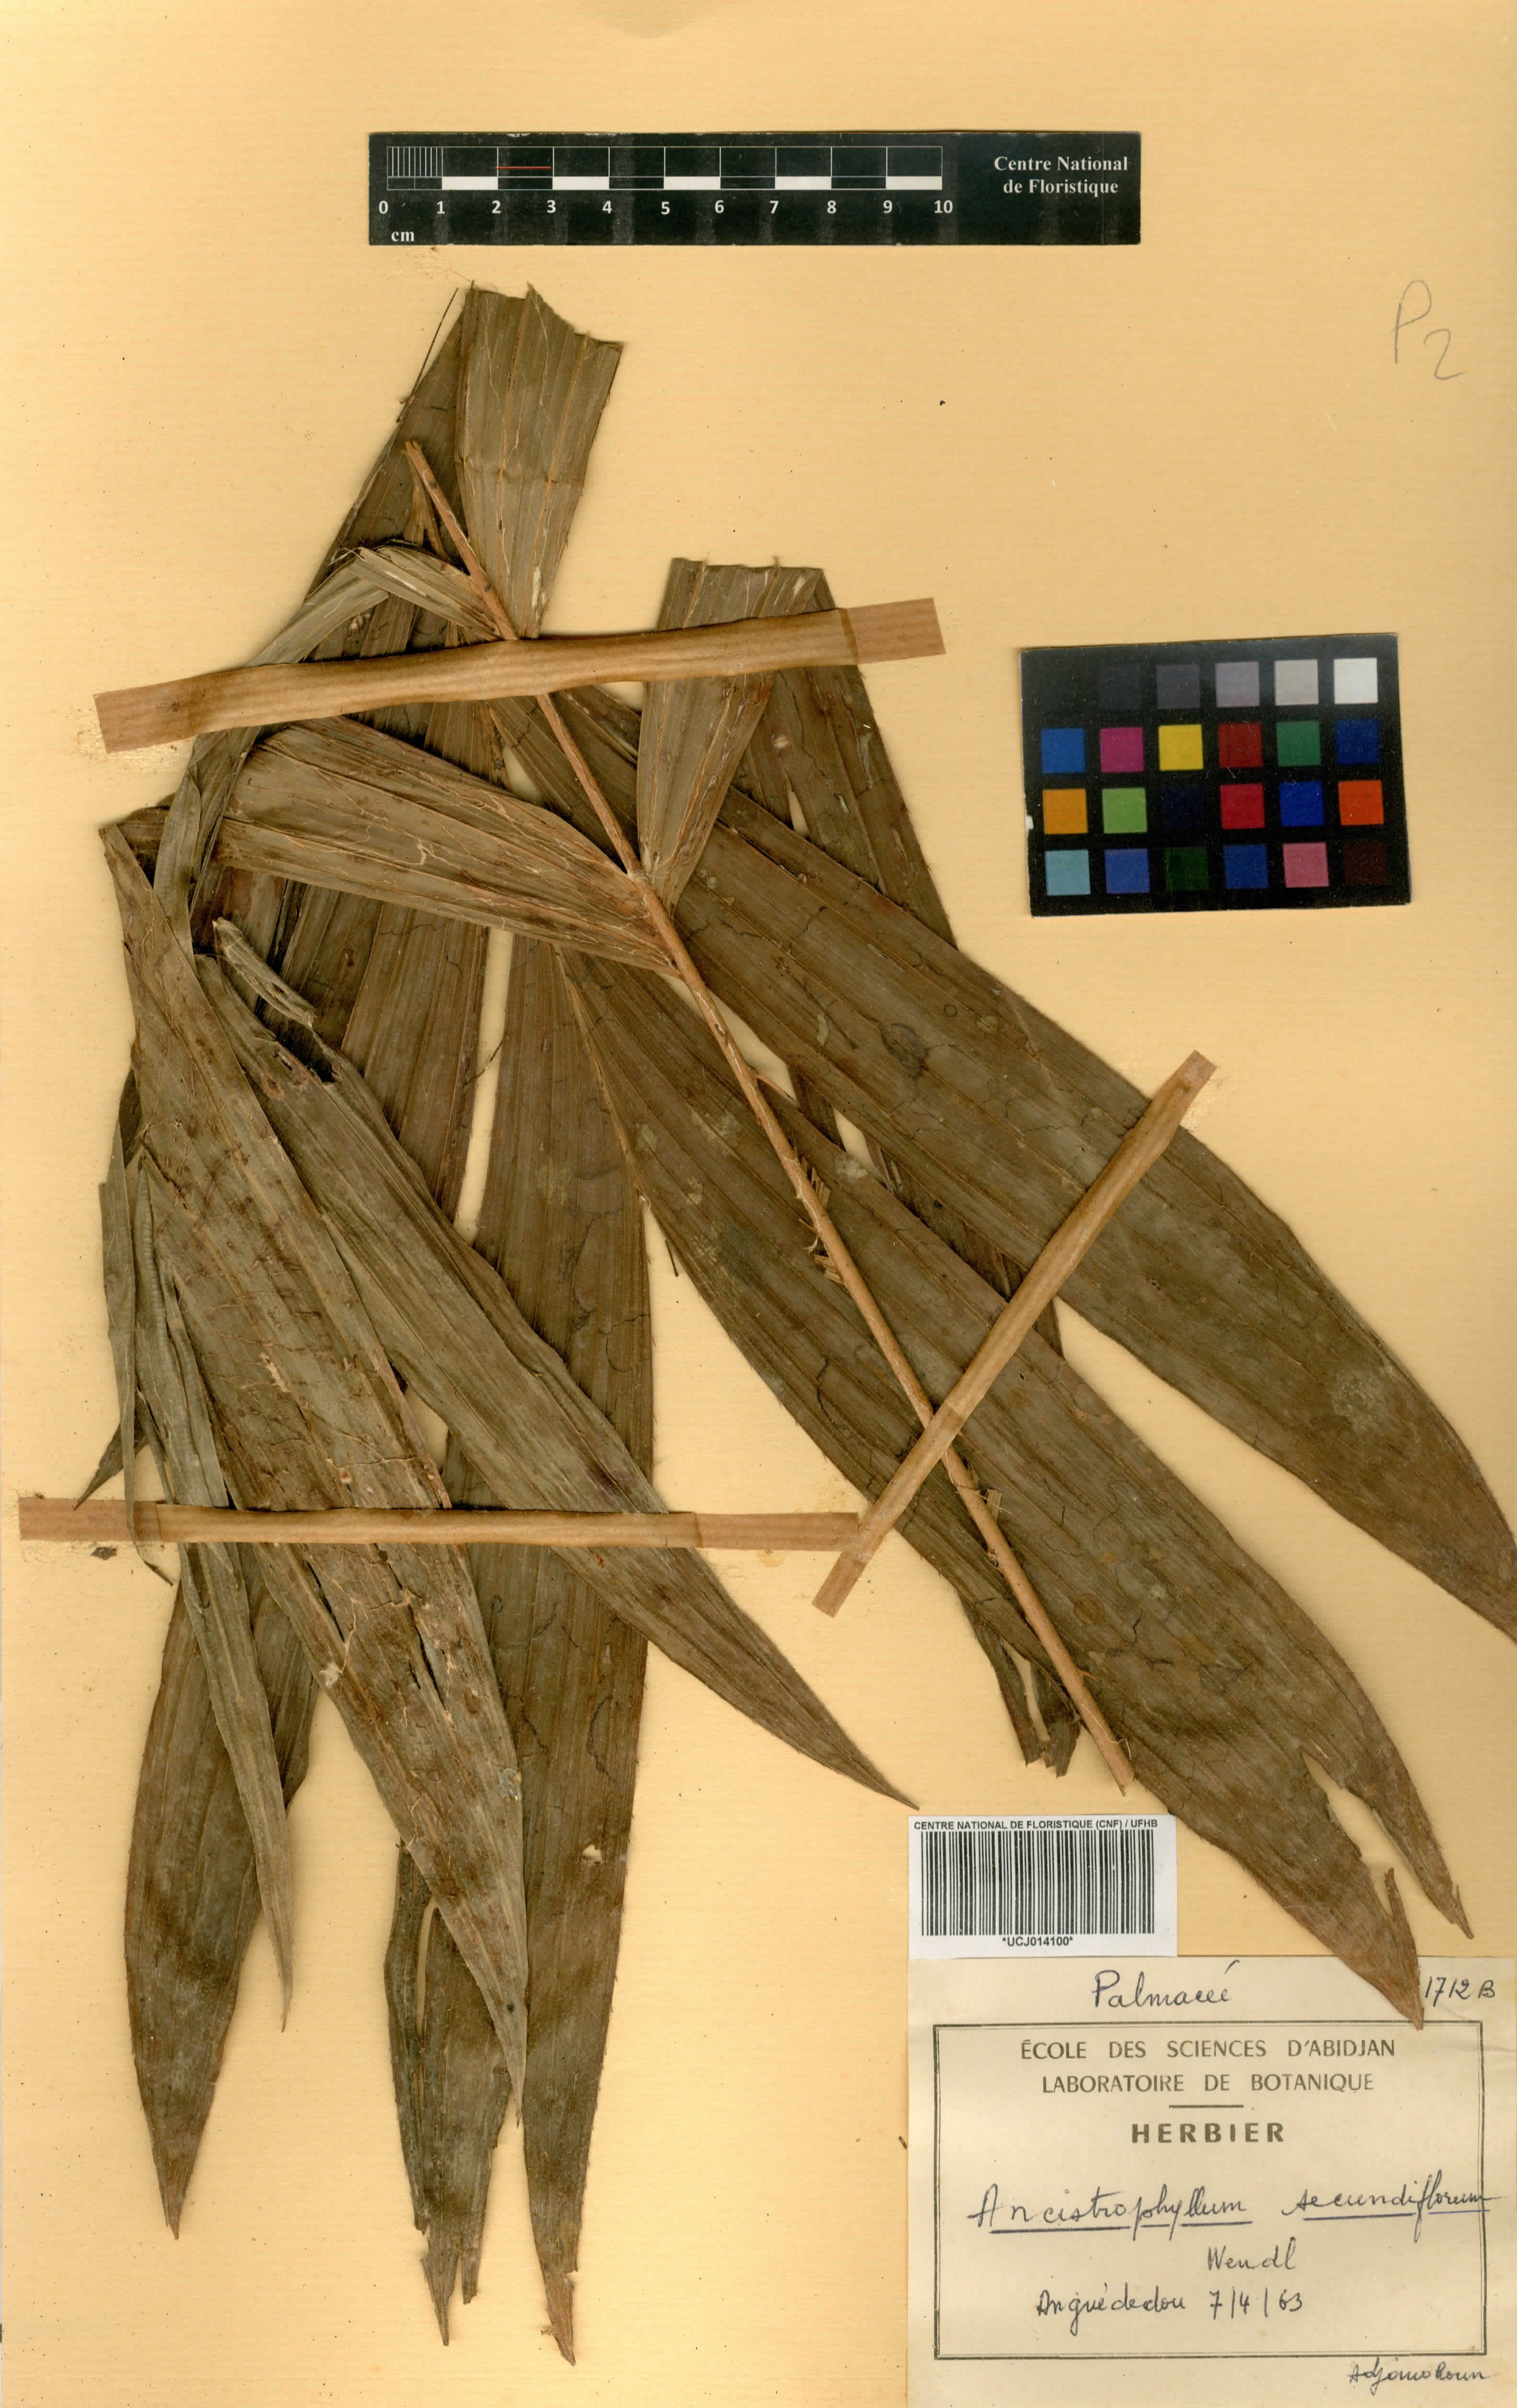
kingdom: Plantae
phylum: Tracheophyta
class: Liliopsida
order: Arecales
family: Arecaceae
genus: Laccosperma
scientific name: Laccosperma secundiflorum
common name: Rattan
